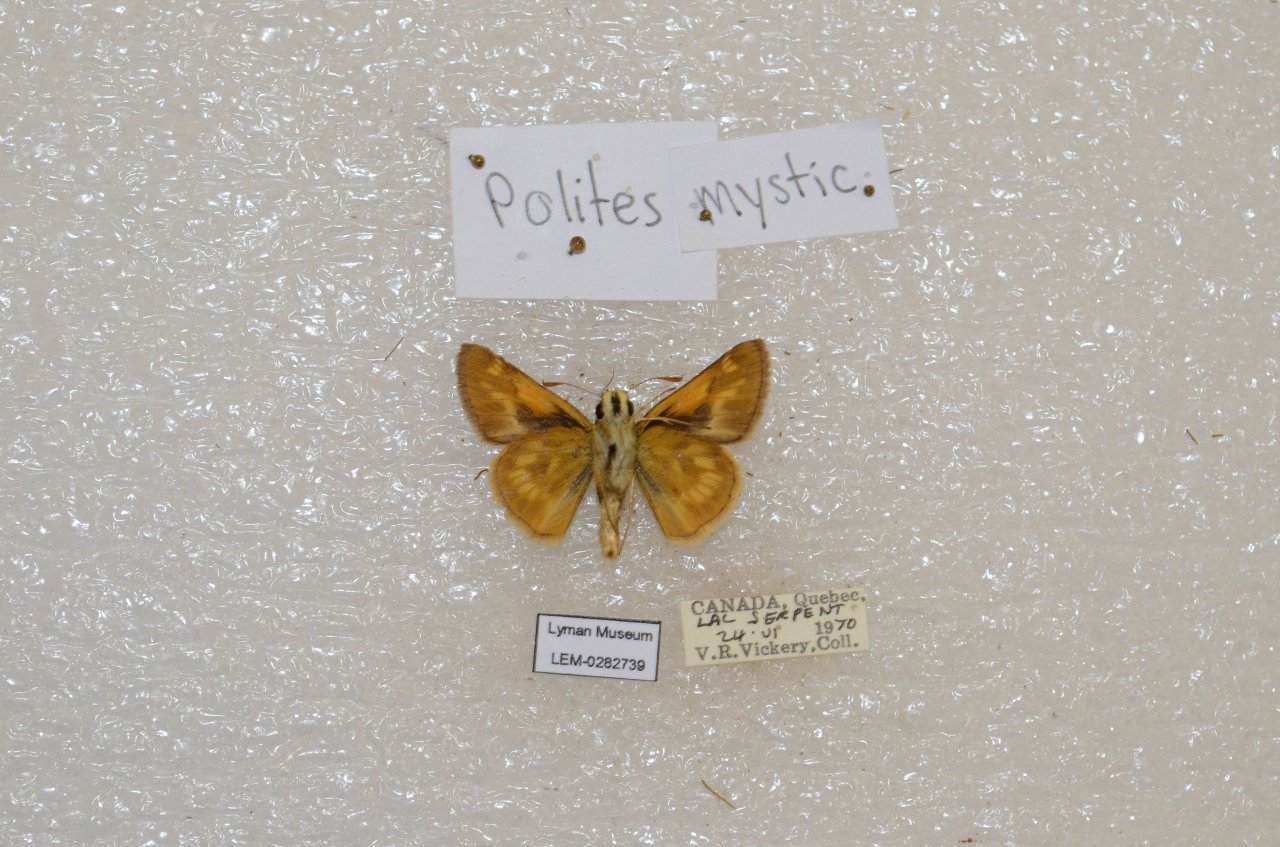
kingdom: Animalia
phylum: Arthropoda
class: Insecta
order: Lepidoptera
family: Hesperiidae
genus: Polites
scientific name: Polites
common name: Long Dash Skipper
